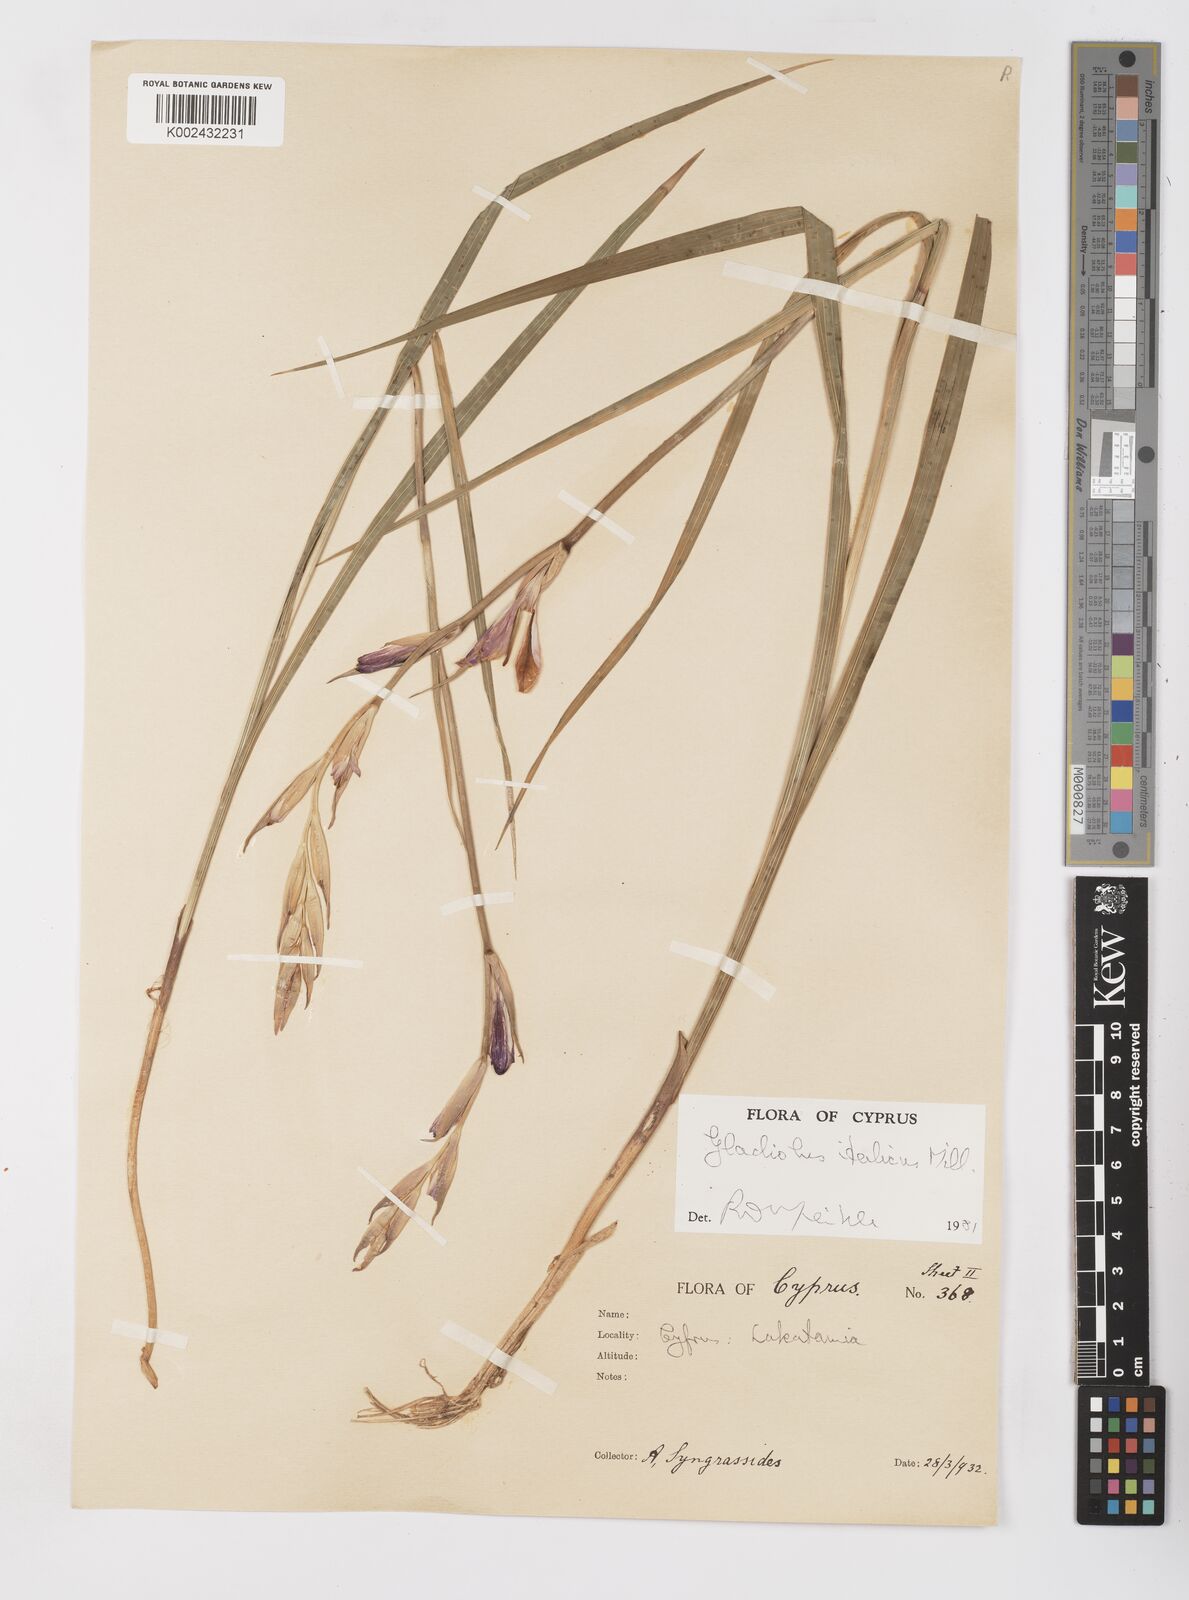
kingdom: Plantae
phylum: Tracheophyta
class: Liliopsida
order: Asparagales
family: Iridaceae
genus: Gladiolus
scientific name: Gladiolus italicus
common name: Field gladiolus
